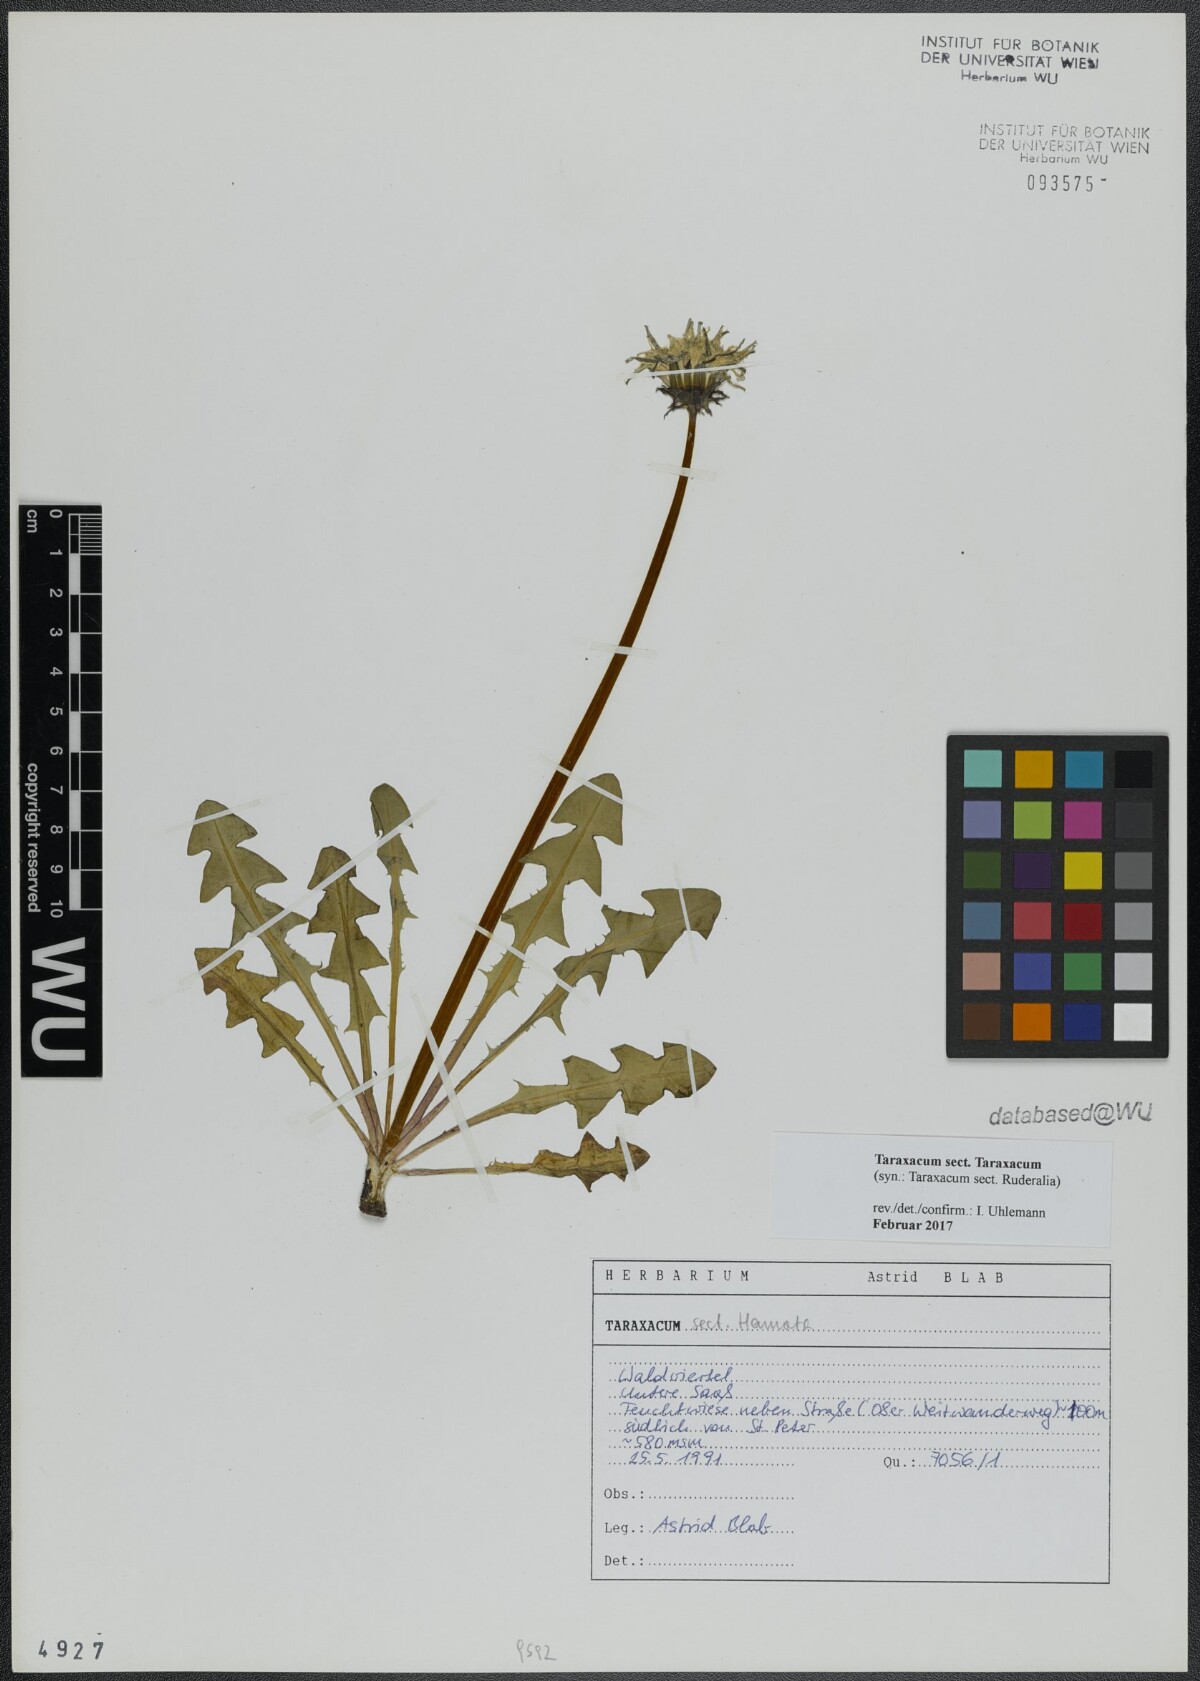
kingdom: Plantae
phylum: Tracheophyta
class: Magnoliopsida
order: Asterales
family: Asteraceae
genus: Taraxacum
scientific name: Taraxacum
